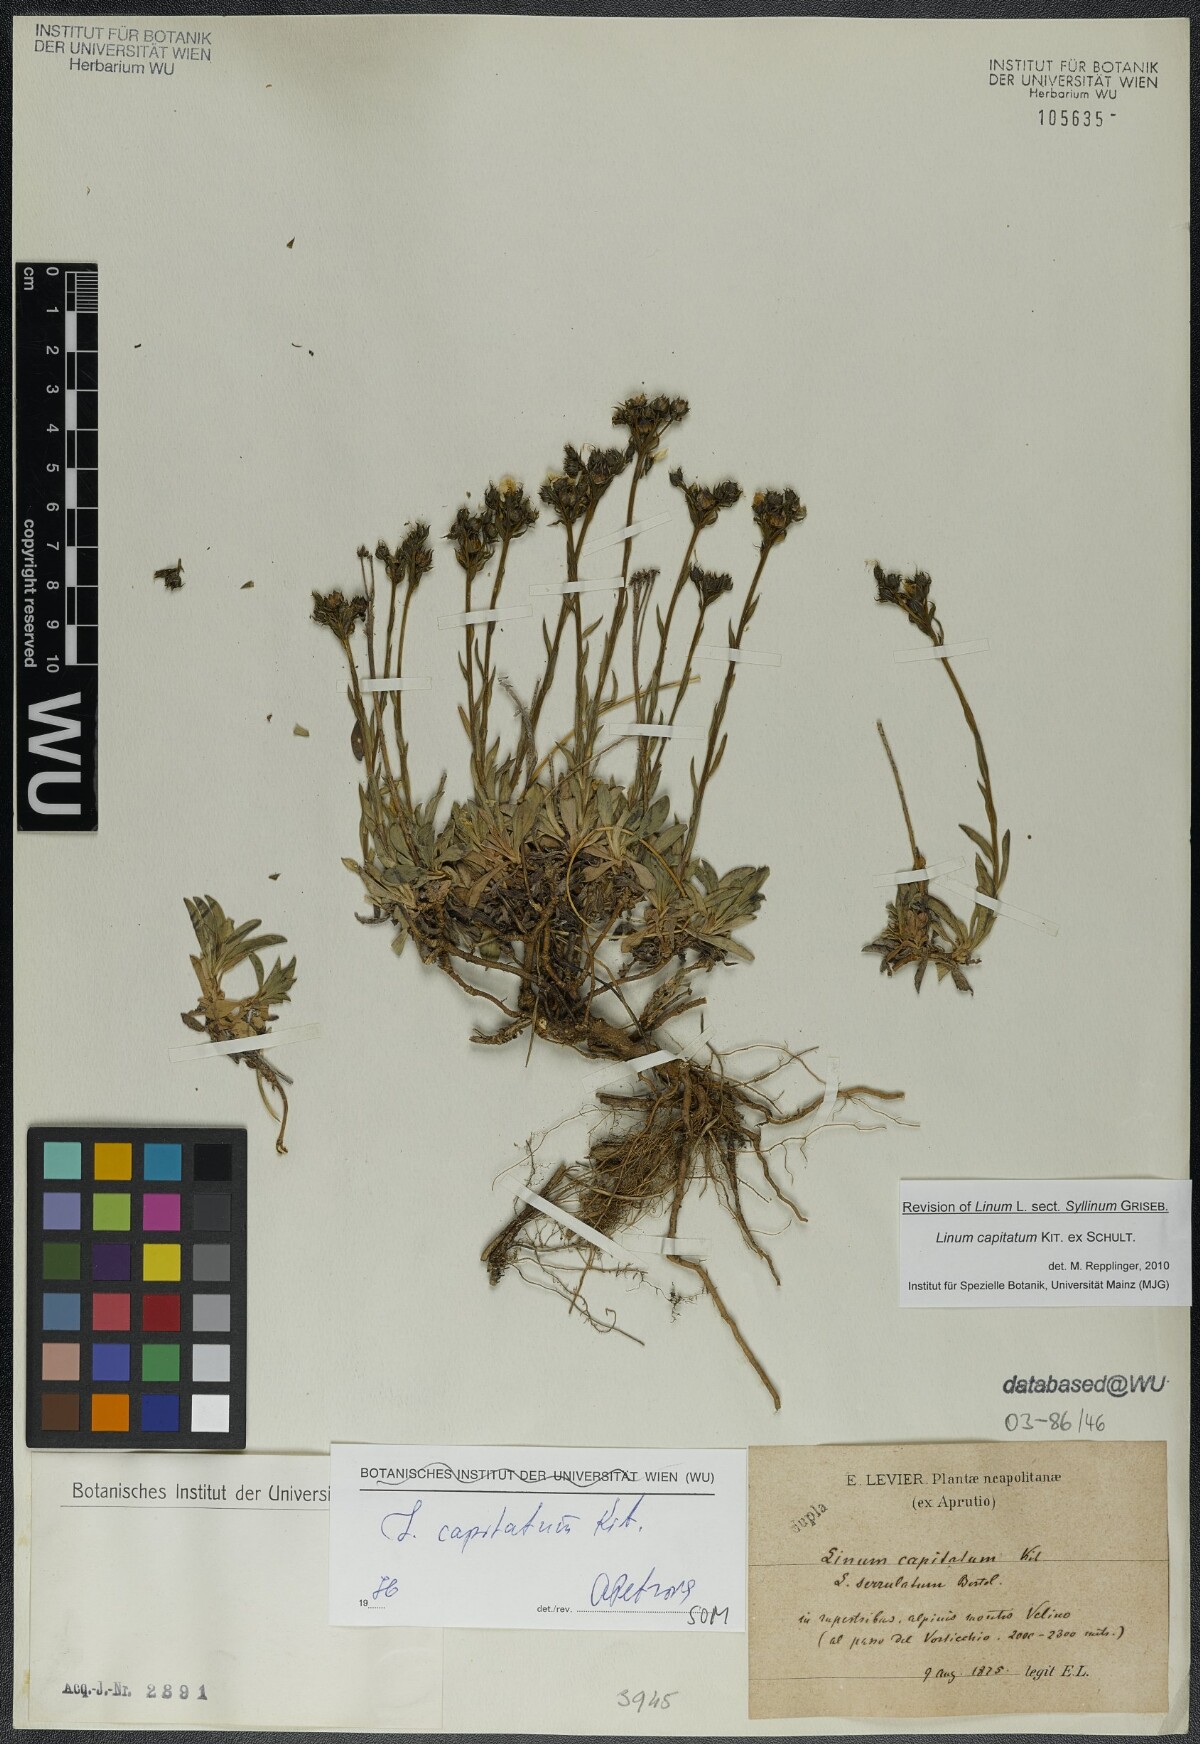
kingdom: Plantae
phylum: Tracheophyta
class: Magnoliopsida
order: Malpighiales
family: Linaceae
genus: Linum
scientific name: Linum capitatum
